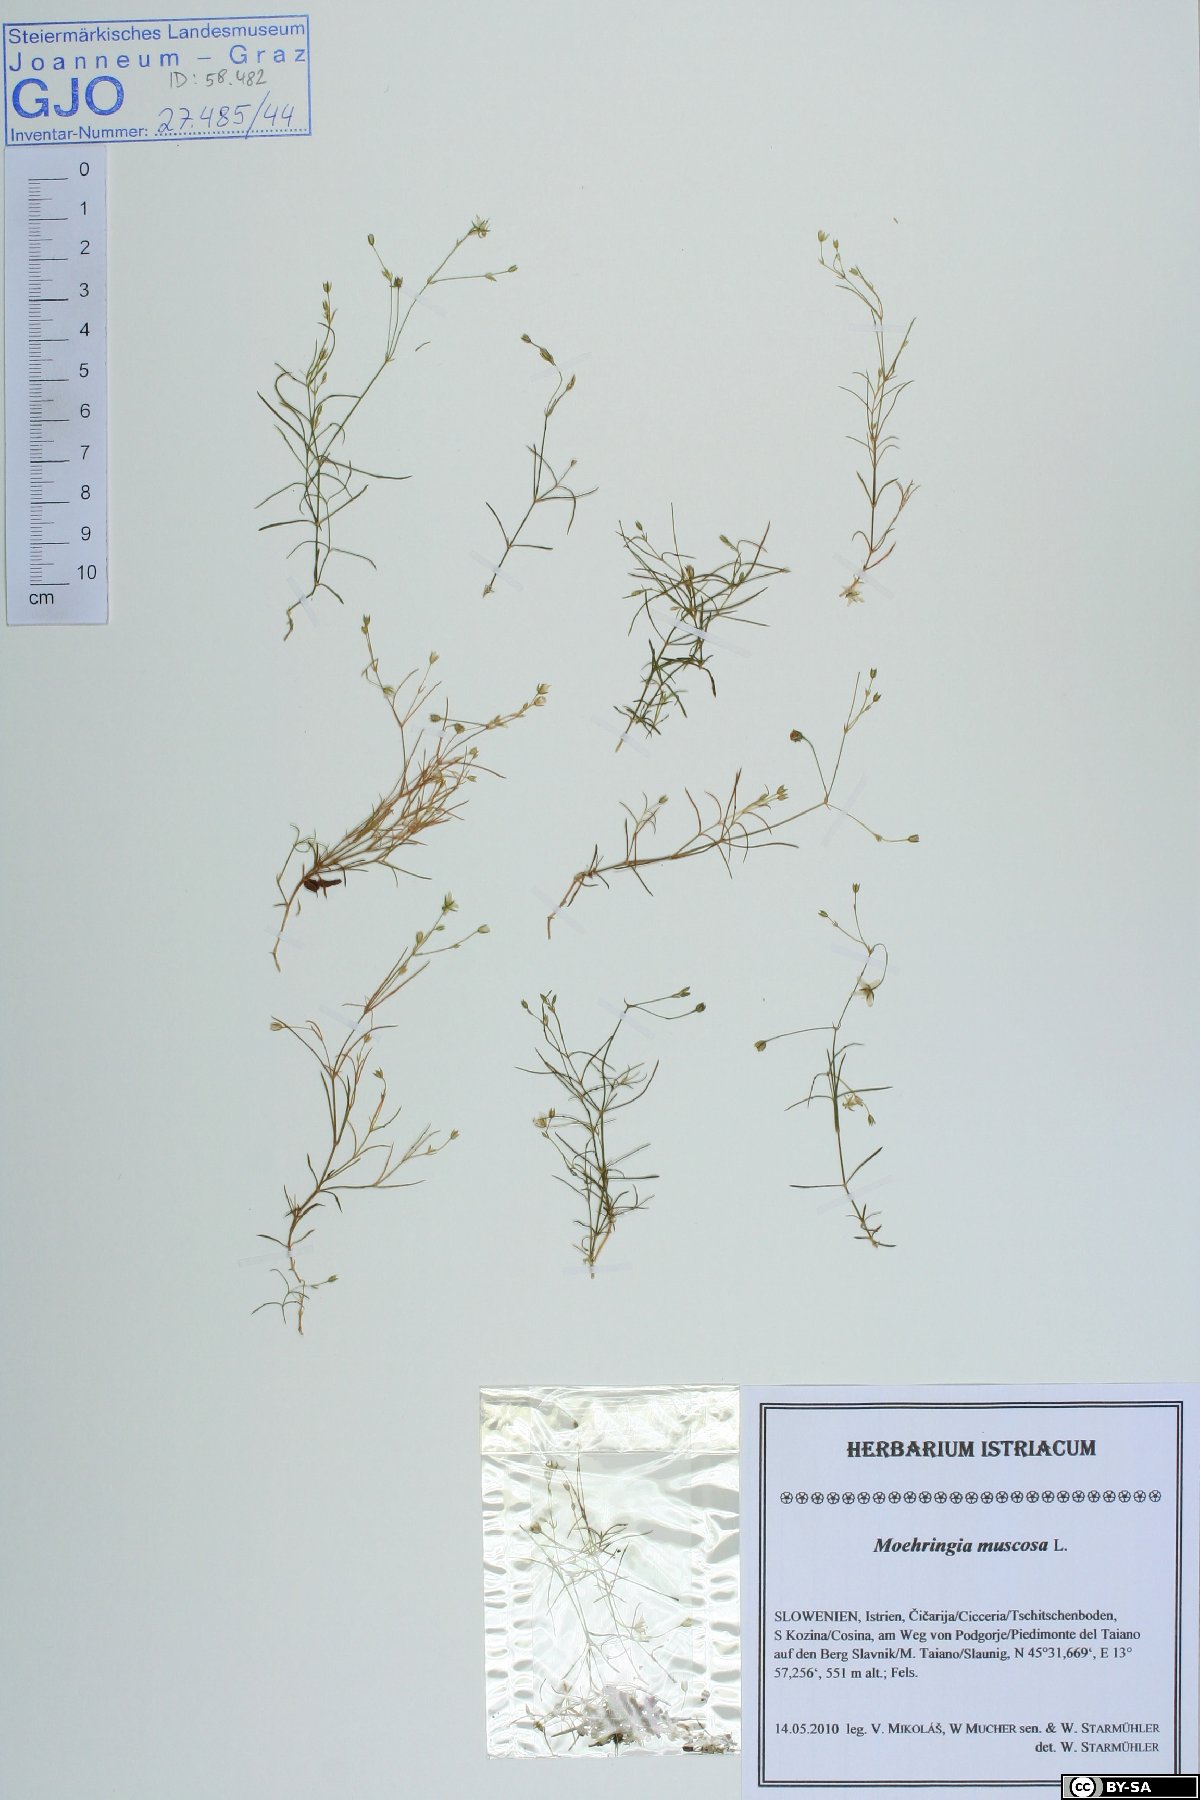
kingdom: Plantae
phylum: Tracheophyta
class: Magnoliopsida
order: Caryophyllales
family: Caryophyllaceae
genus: Moehringia
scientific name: Moehringia muscosa
